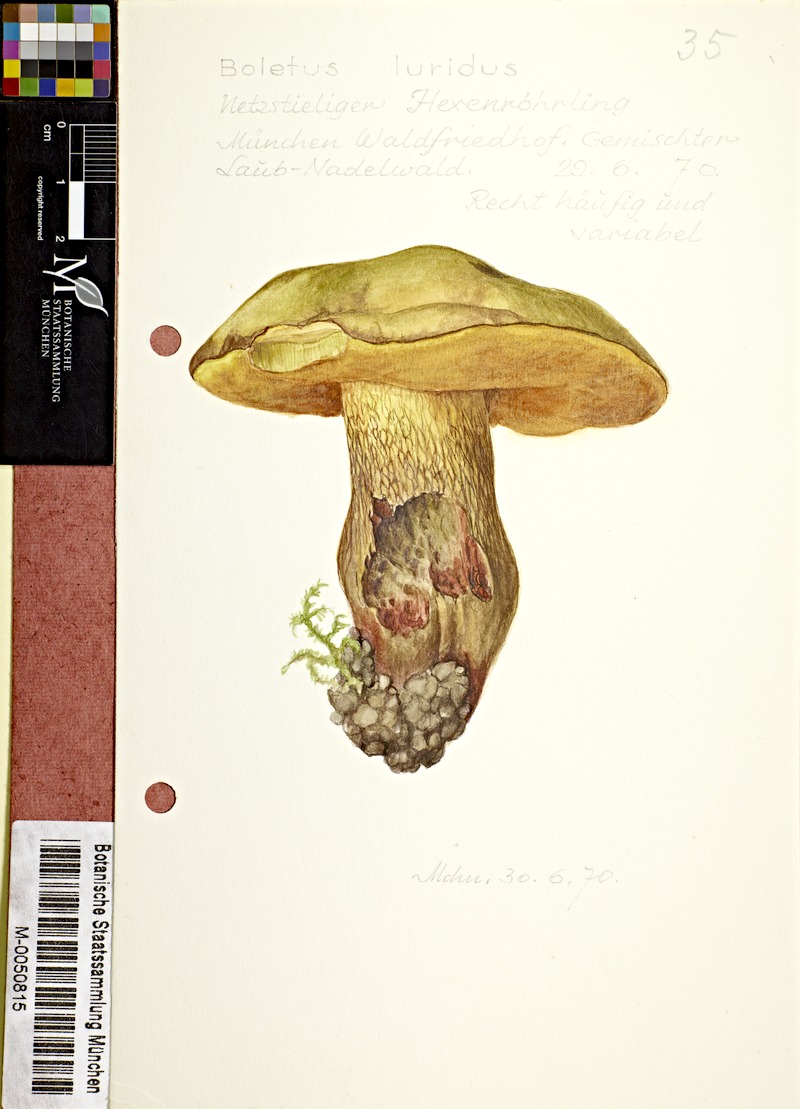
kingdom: Fungi
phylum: Basidiomycota
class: Agaricomycetes
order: Boletales
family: Boletaceae
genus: Suillellus
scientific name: Suillellus luridus
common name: Lurid bolete
